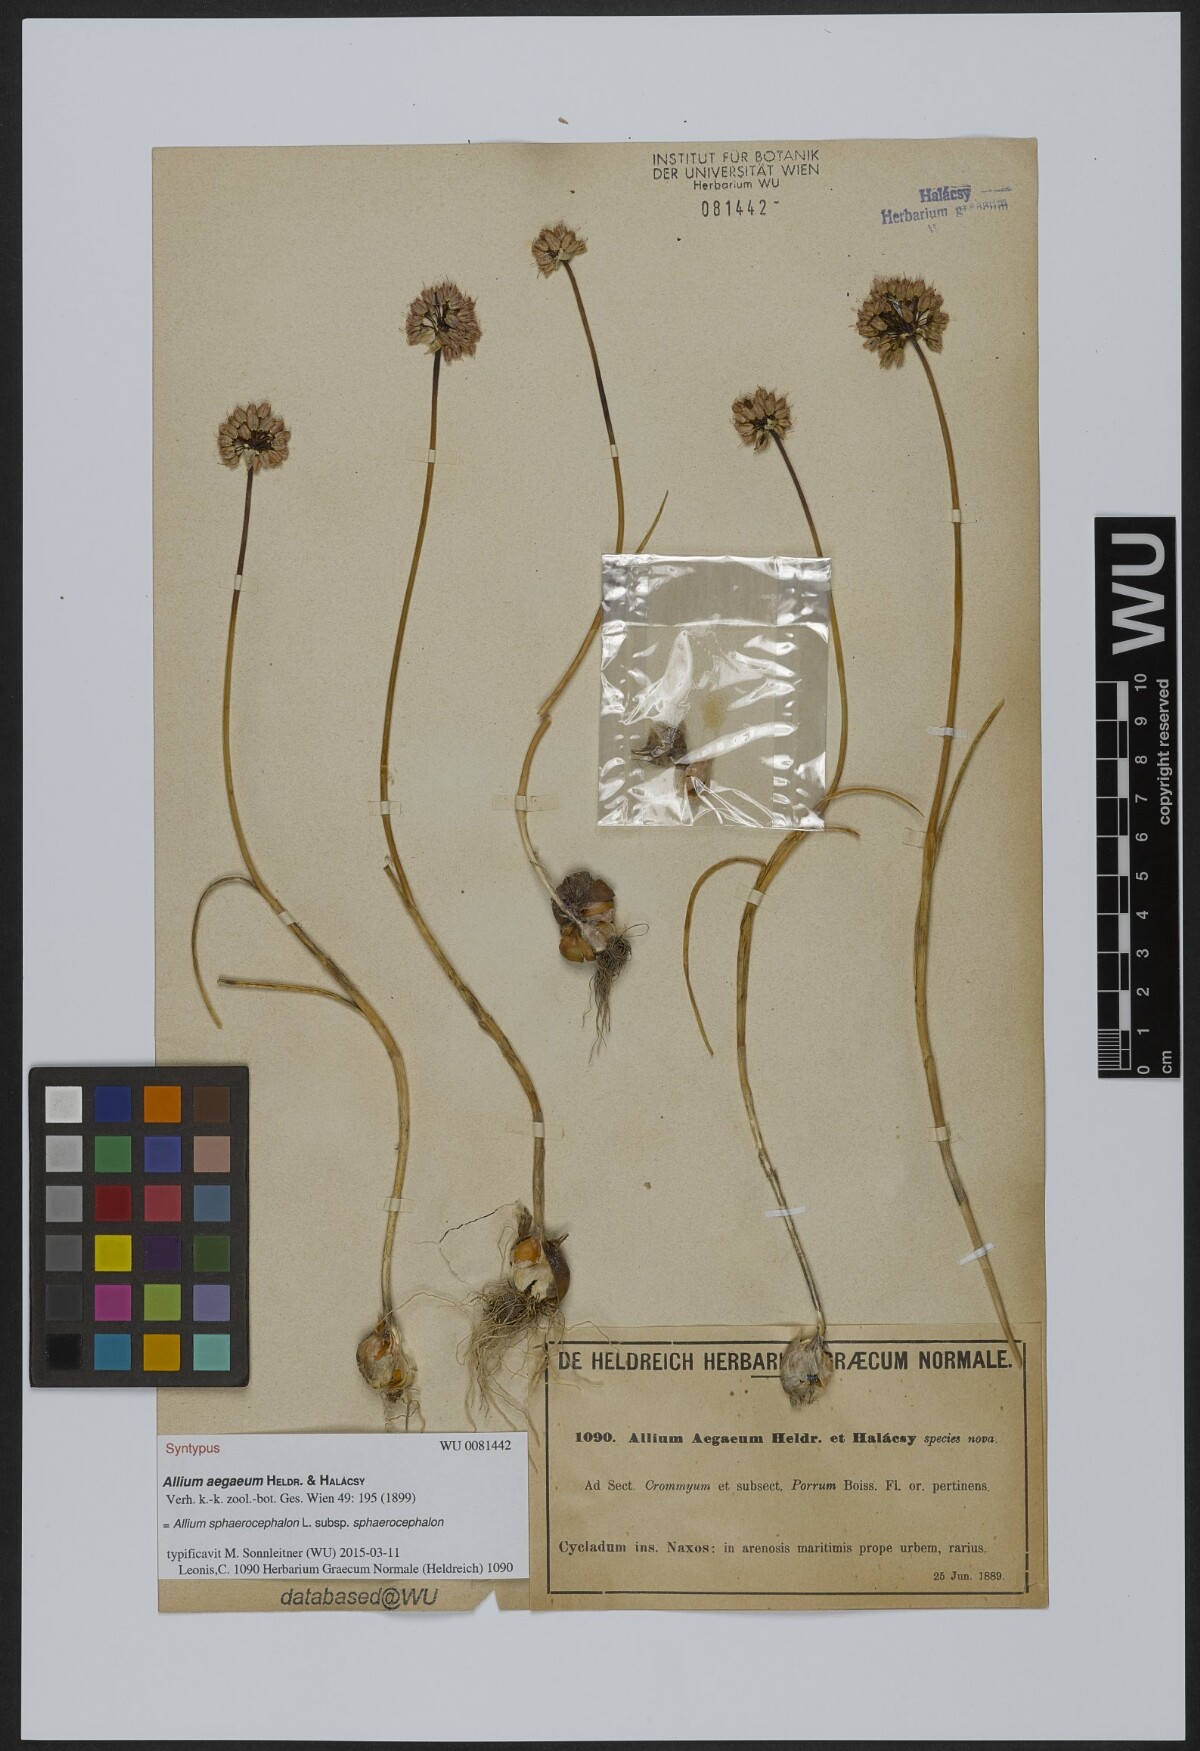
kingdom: Plantae
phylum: Tracheophyta
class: Liliopsida
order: Asparagales
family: Amaryllidaceae
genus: Allium
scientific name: Allium sphaerocephalon
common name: Round-headed leek
